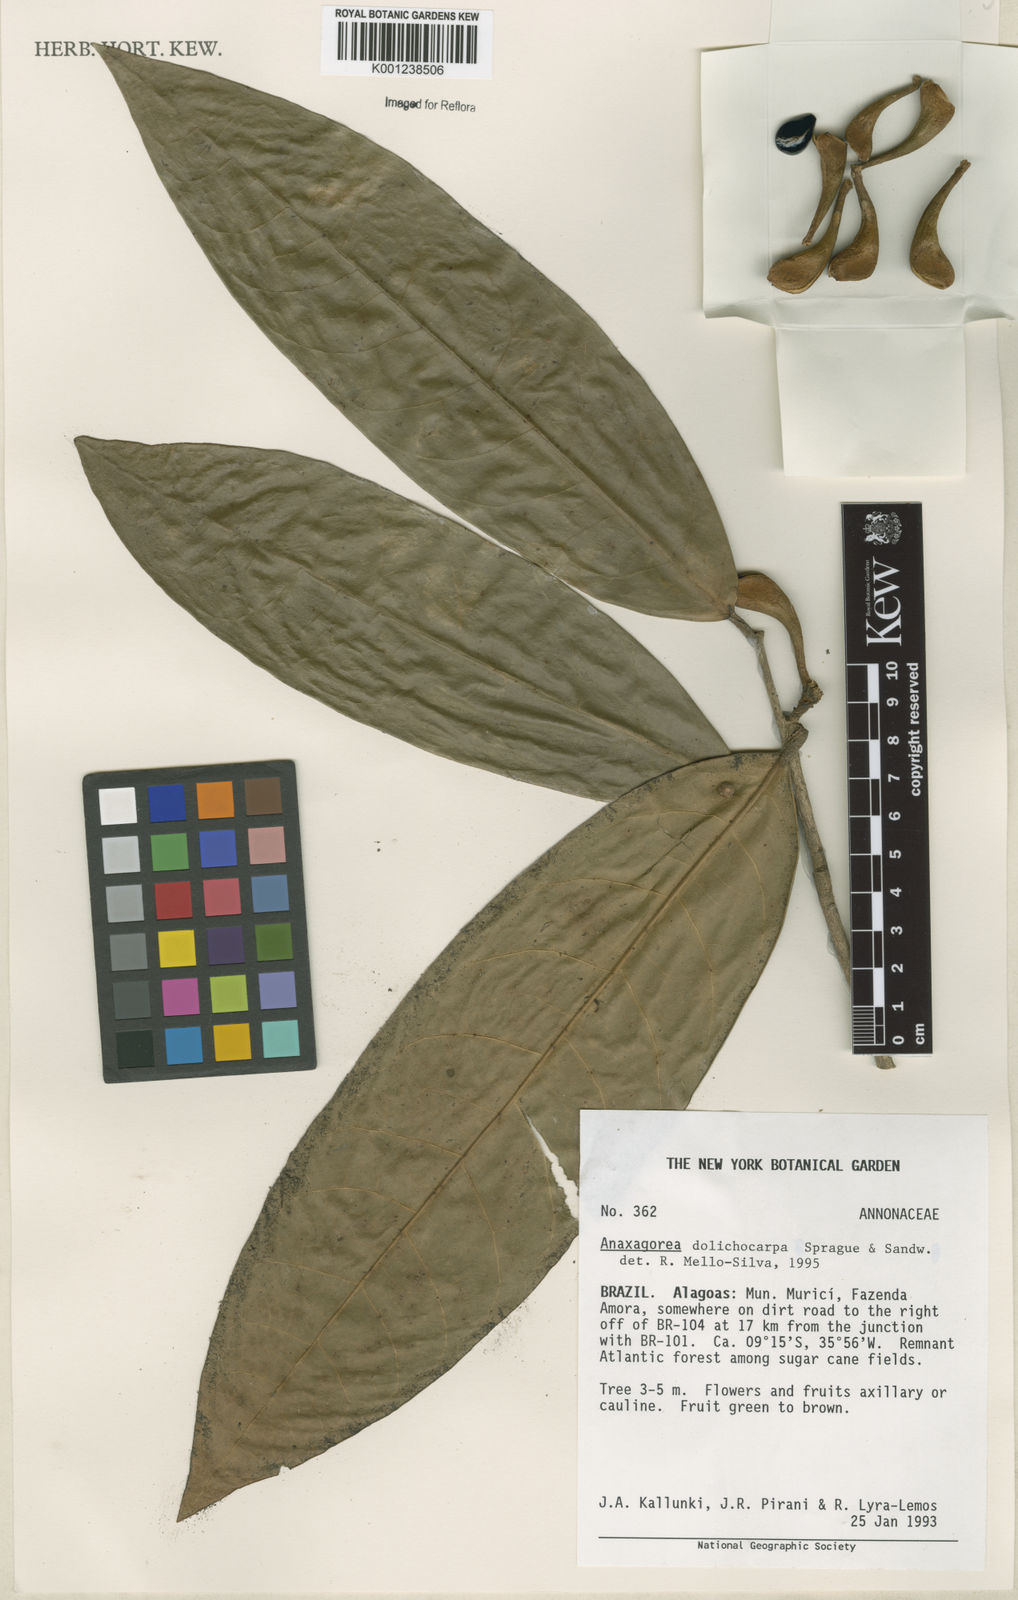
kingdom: Plantae
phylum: Tracheophyta
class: Magnoliopsida
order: Magnoliales
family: Annonaceae
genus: Anaxagorea
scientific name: Anaxagorea dolichocarpa
